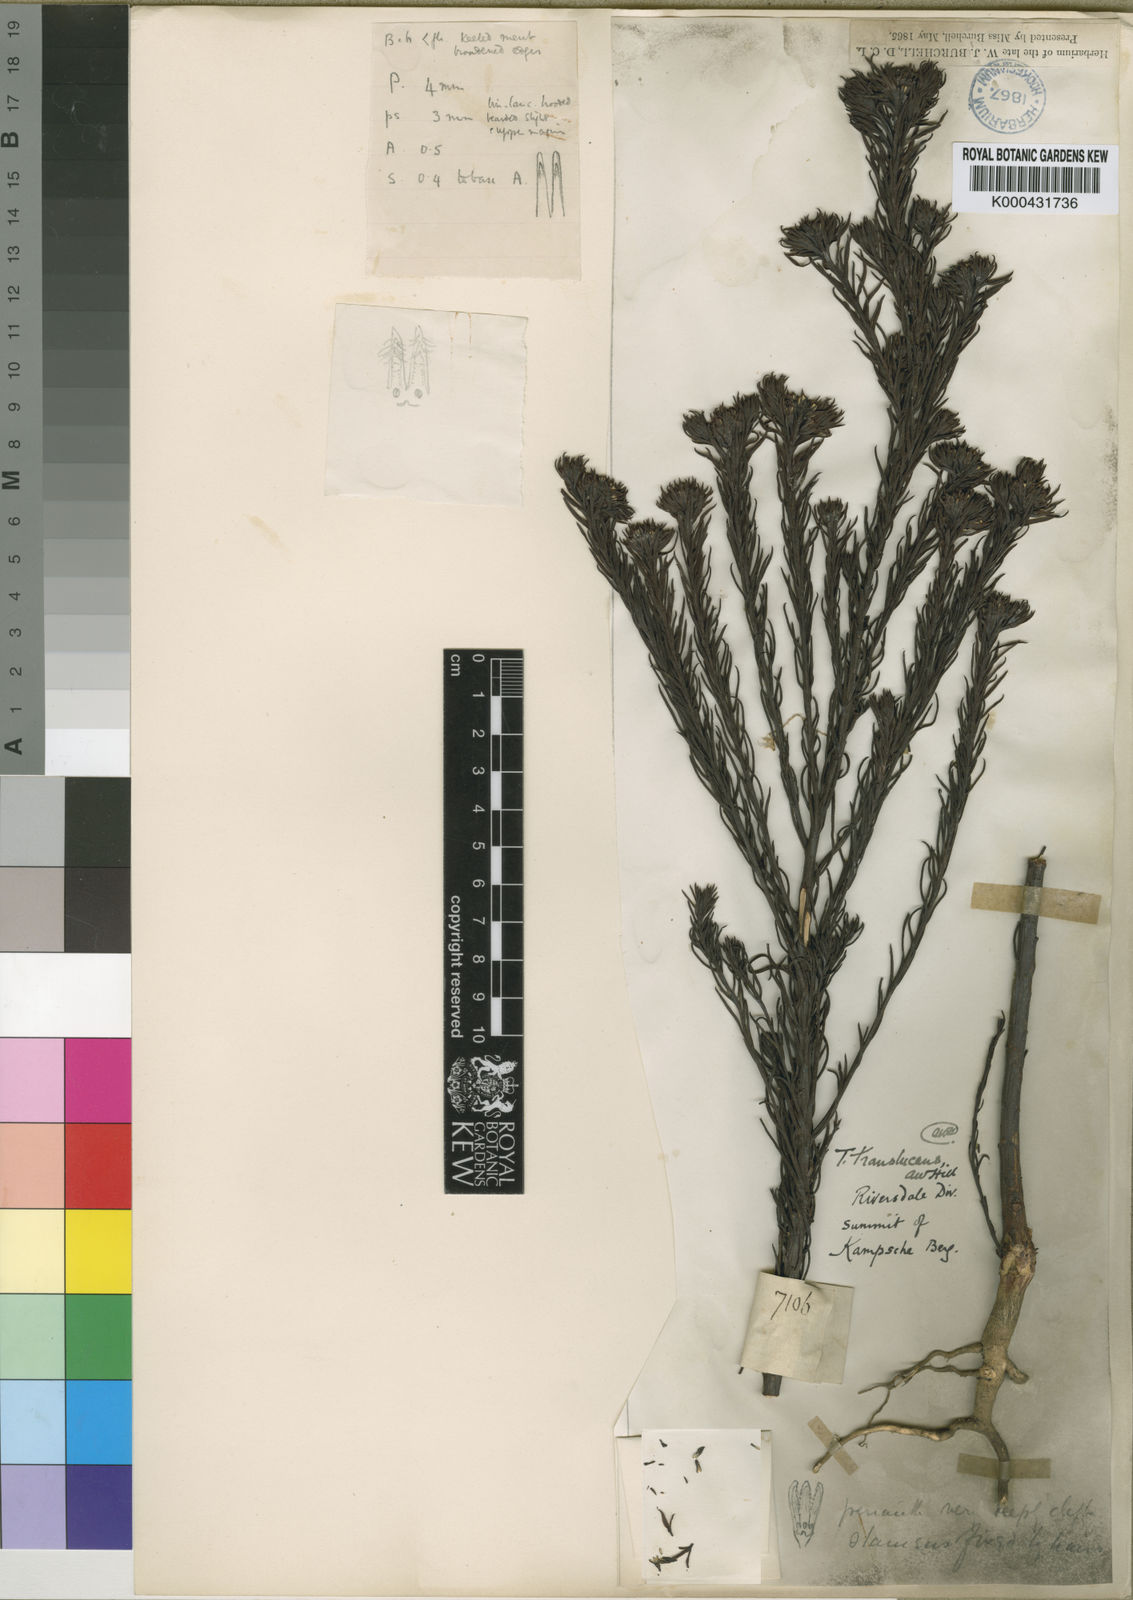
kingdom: Plantae
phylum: Tracheophyta
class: Magnoliopsida
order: Santalales
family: Thesiaceae
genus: Thesium
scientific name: Thesium translucens
